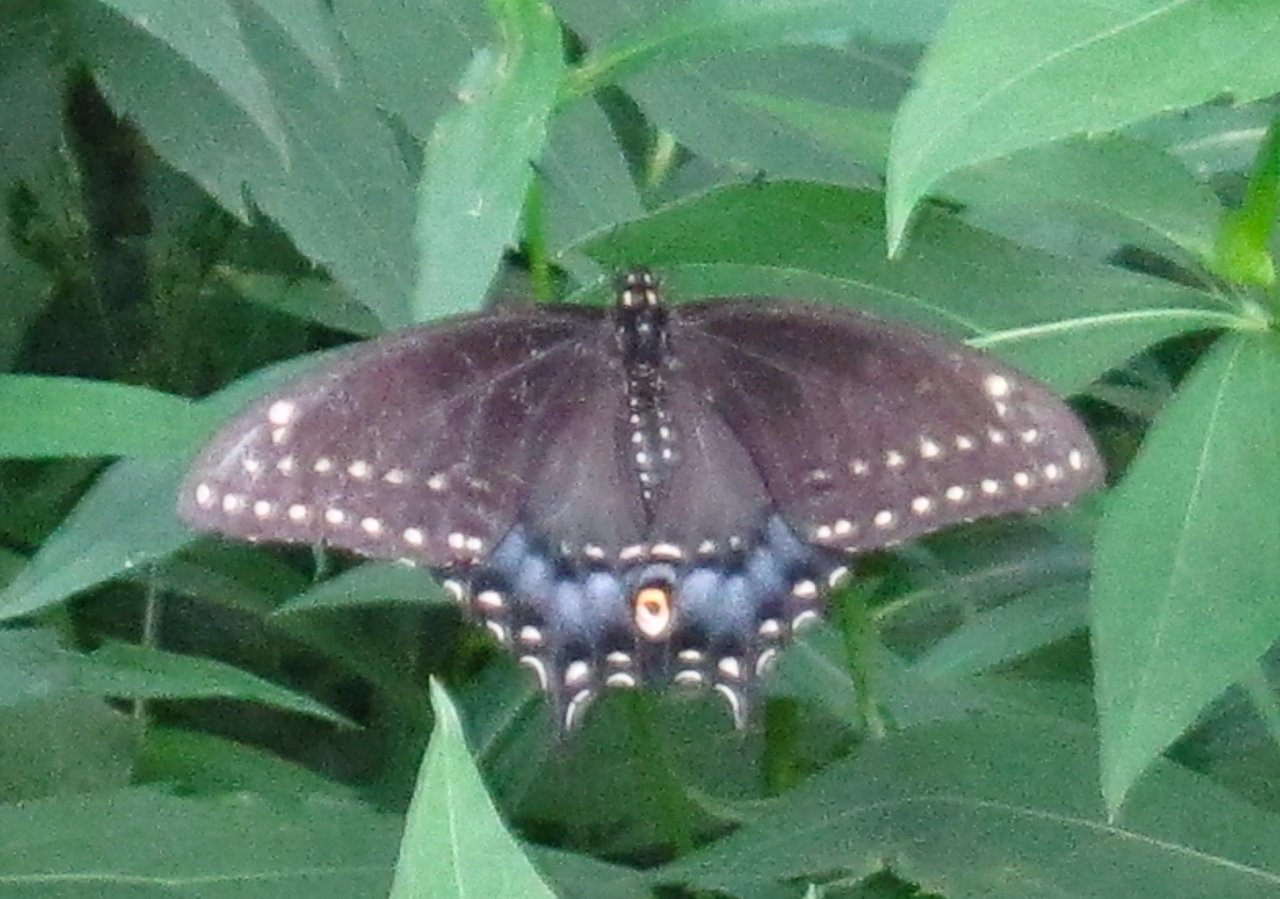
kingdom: Animalia
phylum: Arthropoda
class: Insecta
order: Lepidoptera
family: Papilionidae
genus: Papilio
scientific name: Papilio polyxenes
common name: Black Swallowtail
